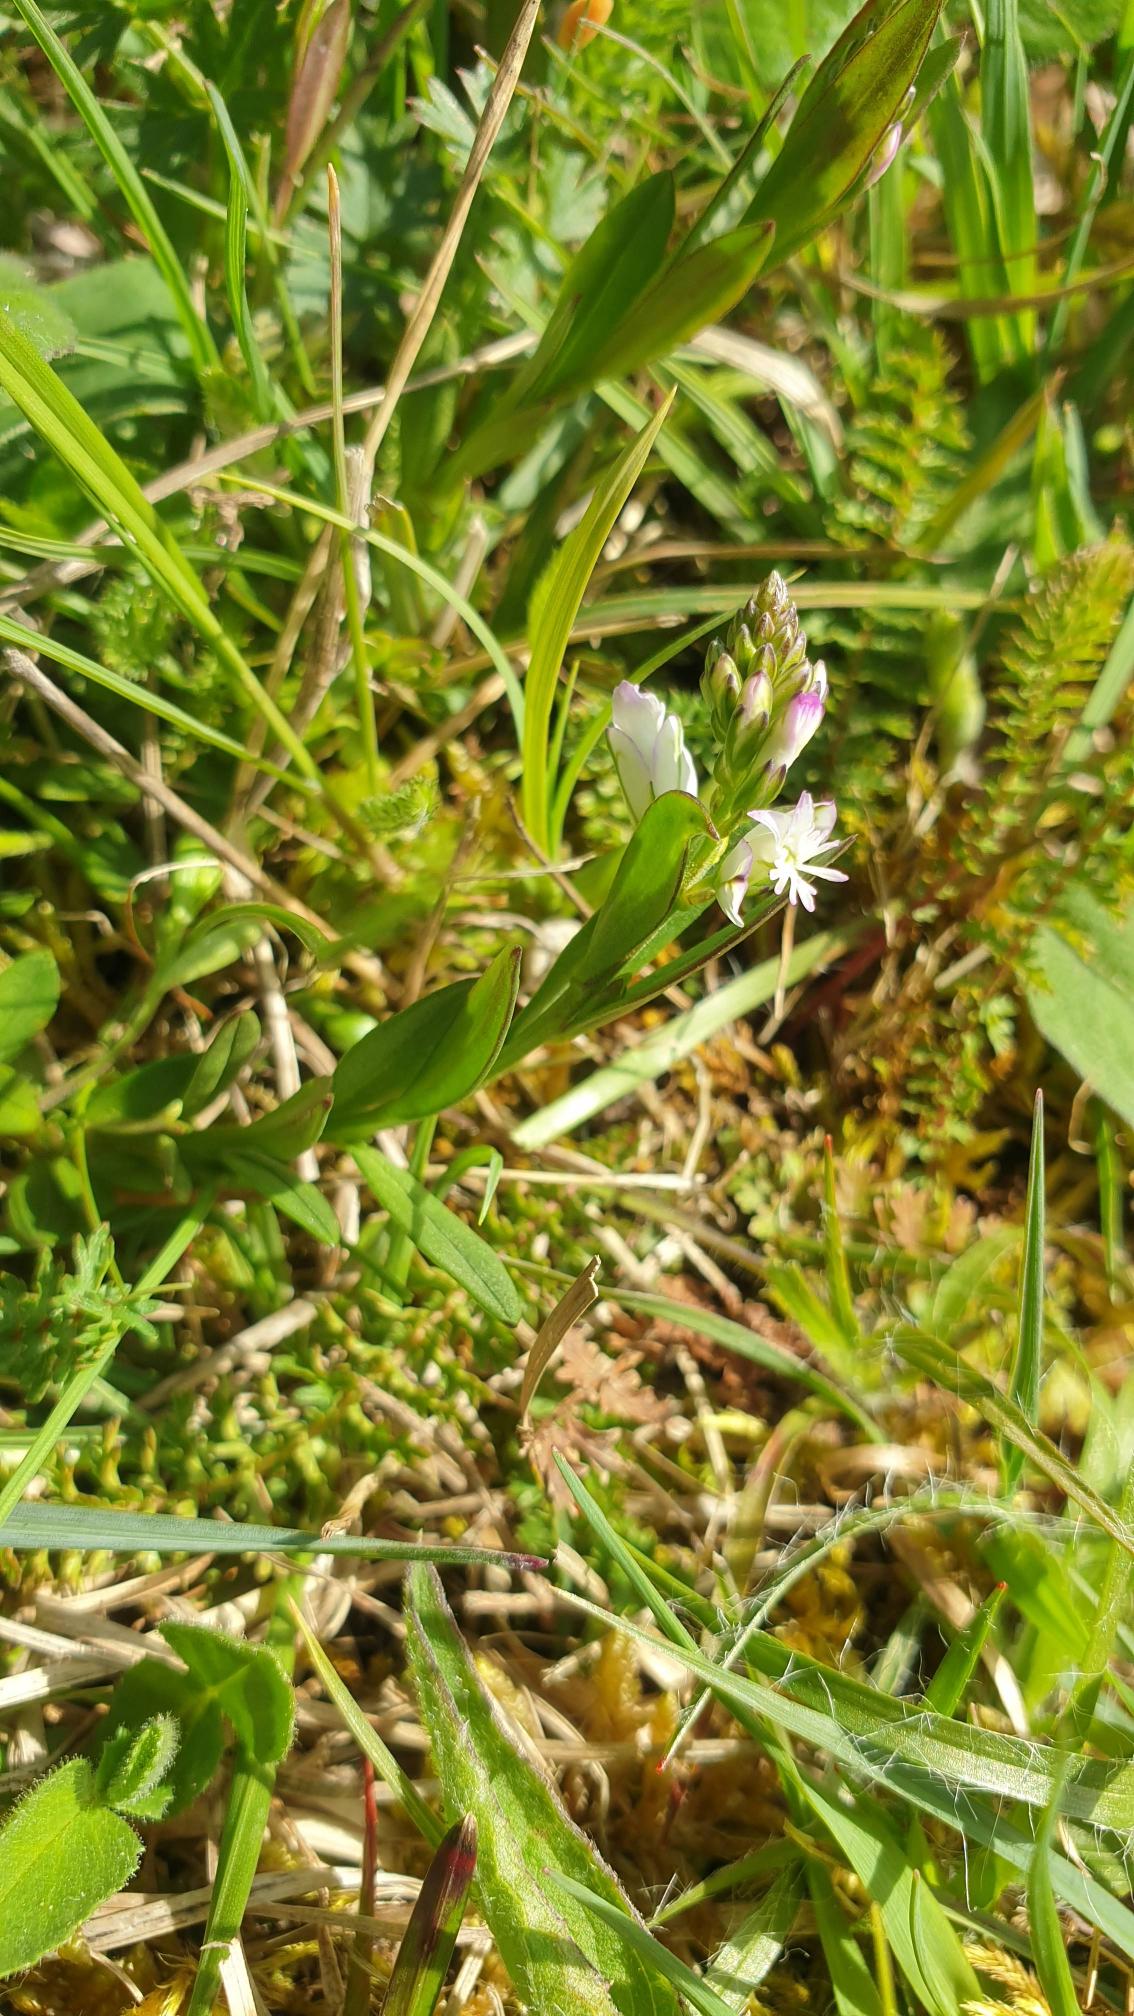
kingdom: Plantae
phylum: Tracheophyta
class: Magnoliopsida
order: Fabales
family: Polygalaceae
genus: Polygala
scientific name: Polygala vulgaris
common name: Almindelig mælkeurt
